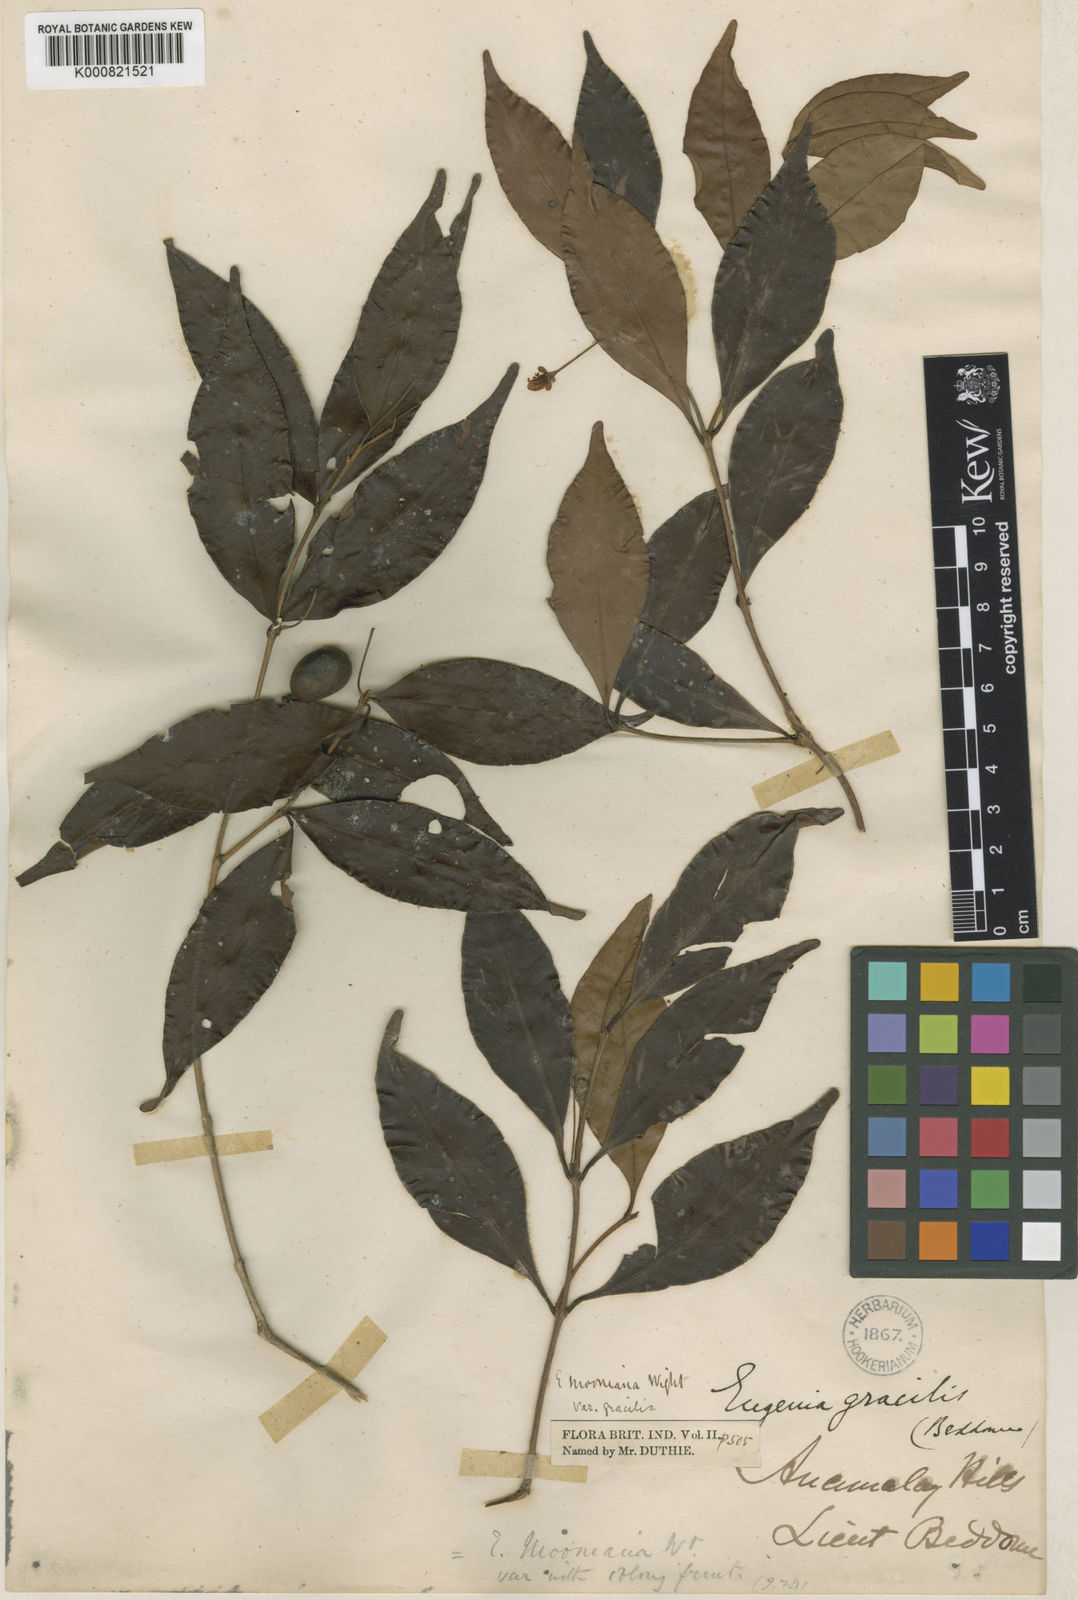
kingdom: Plantae
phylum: Tracheophyta
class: Magnoliopsida
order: Myrtales
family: Myrtaceae
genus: Eugenia
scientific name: Eugenia thwaitesii
